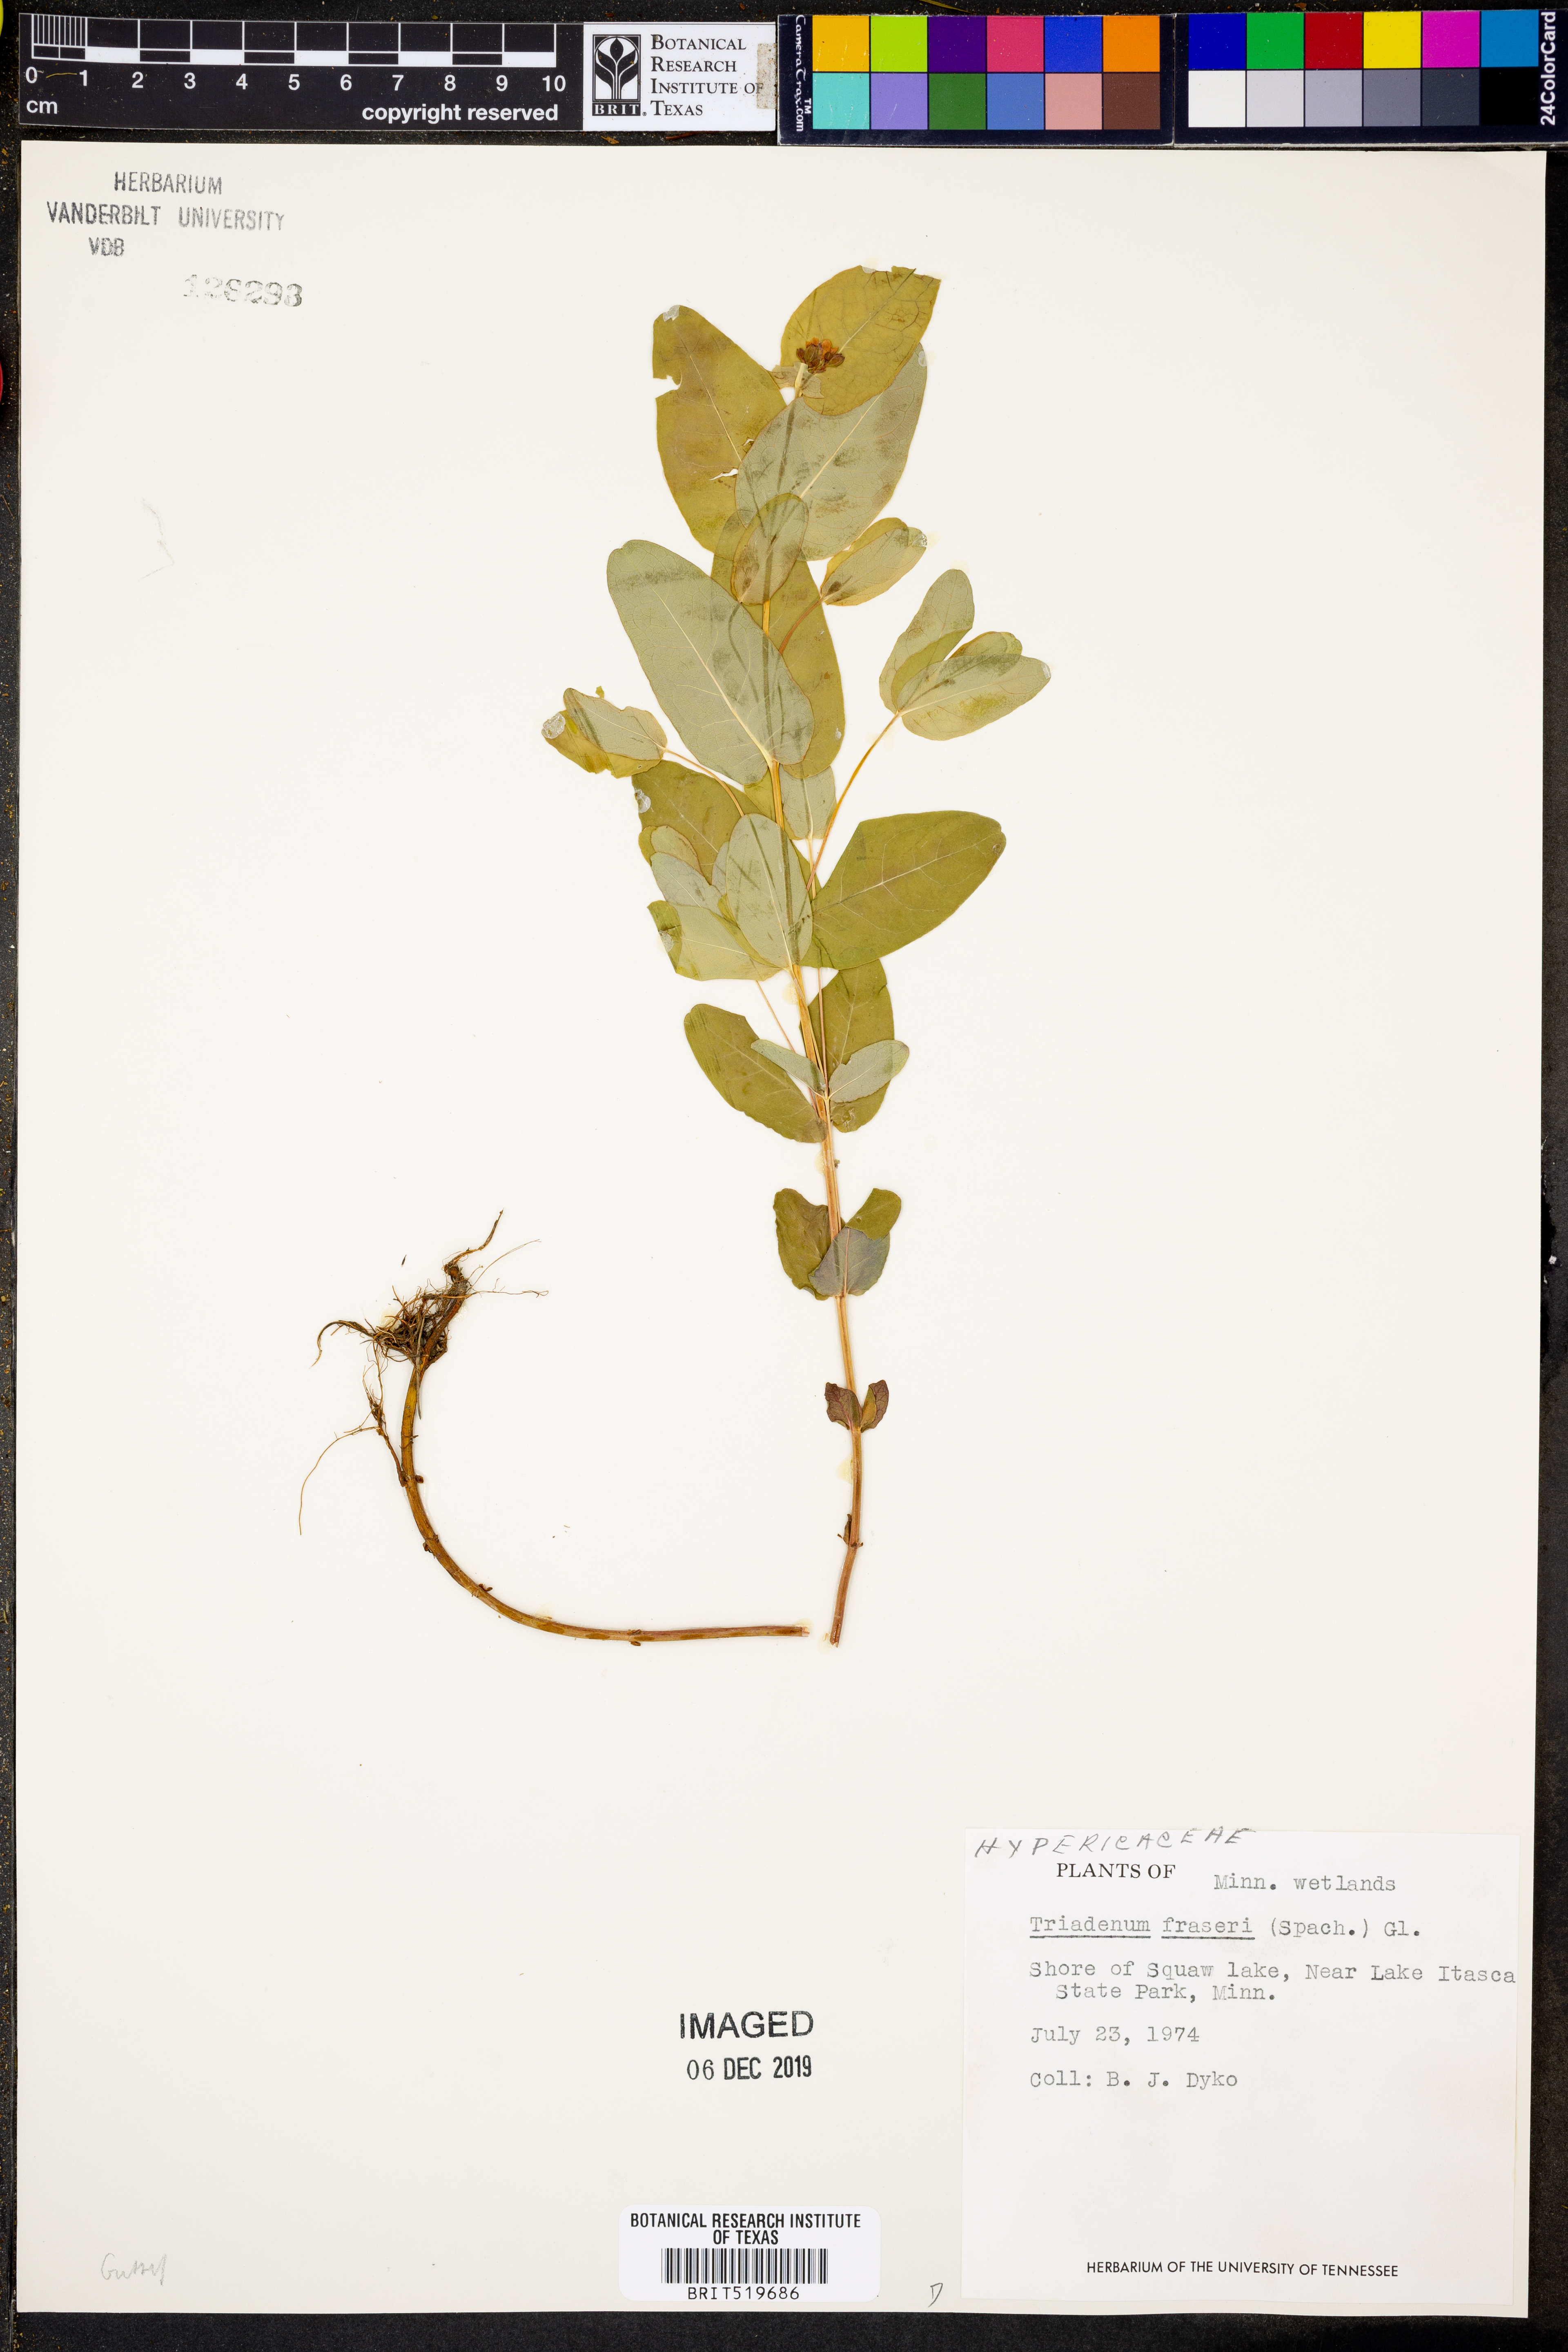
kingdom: Plantae
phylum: Tracheophyta
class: Magnoliopsida
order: Malpighiales
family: Hypericaceae
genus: Triadenum
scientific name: Triadenum fraseri
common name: Fraser's marsh st. johnswort
